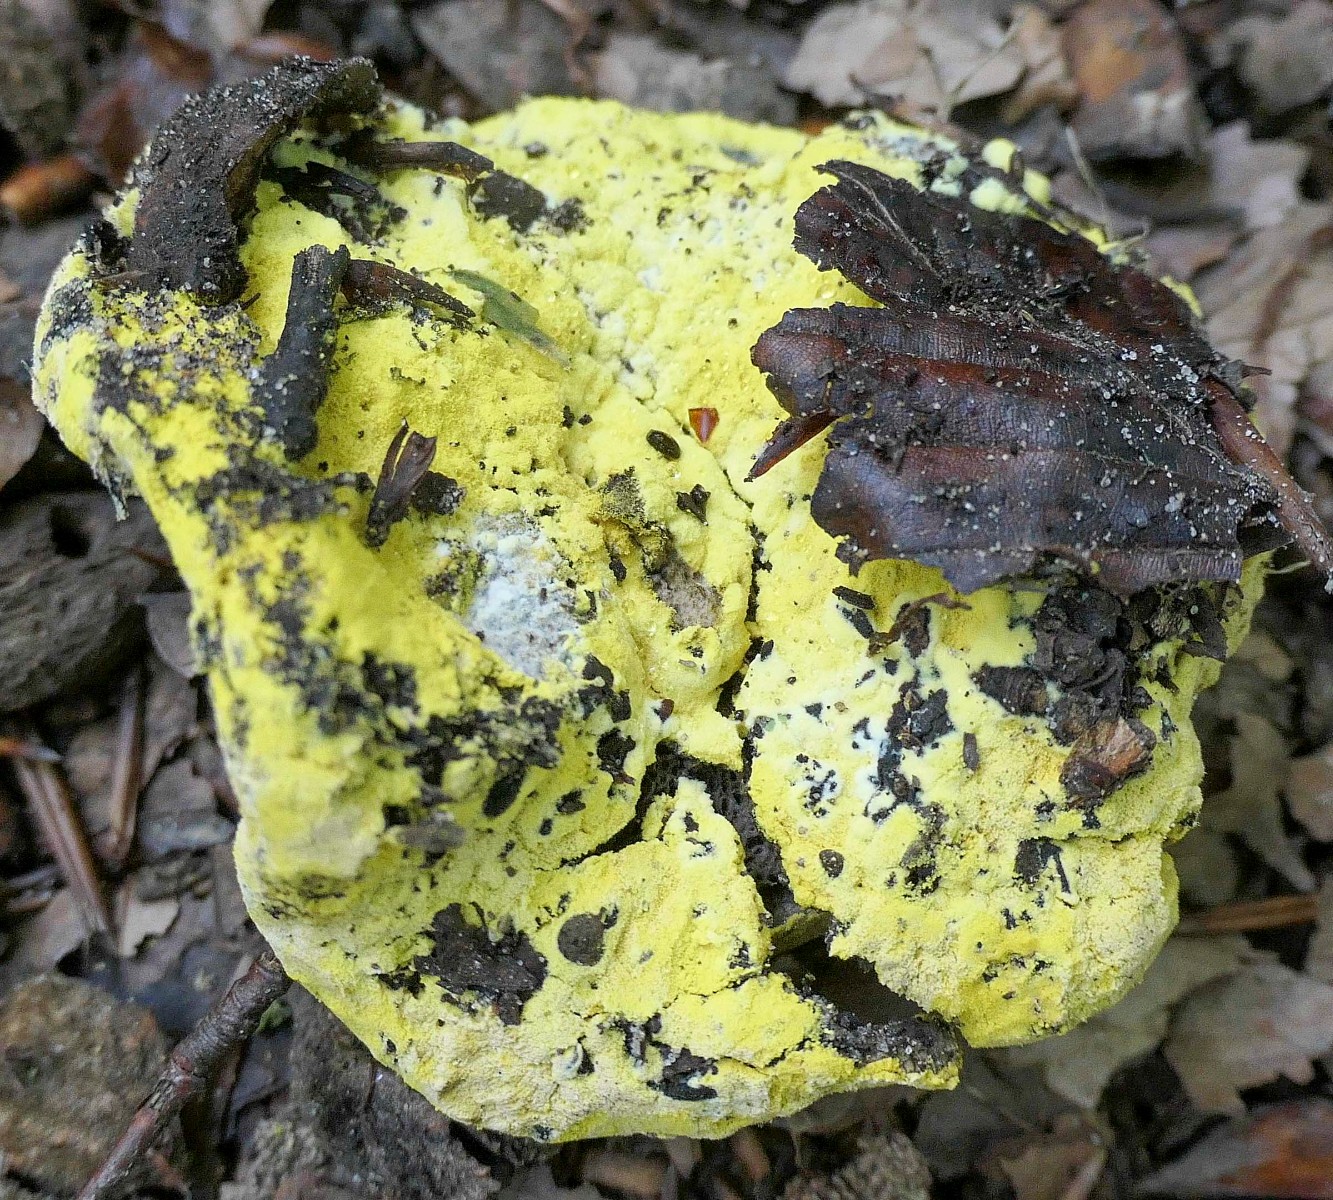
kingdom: Fungi
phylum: Ascomycota
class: Sordariomycetes
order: Hypocreales
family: Hypocreaceae
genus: Hypomyces
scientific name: Hypomyces microspermus
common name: dværgrørhat-snylteskorpe
